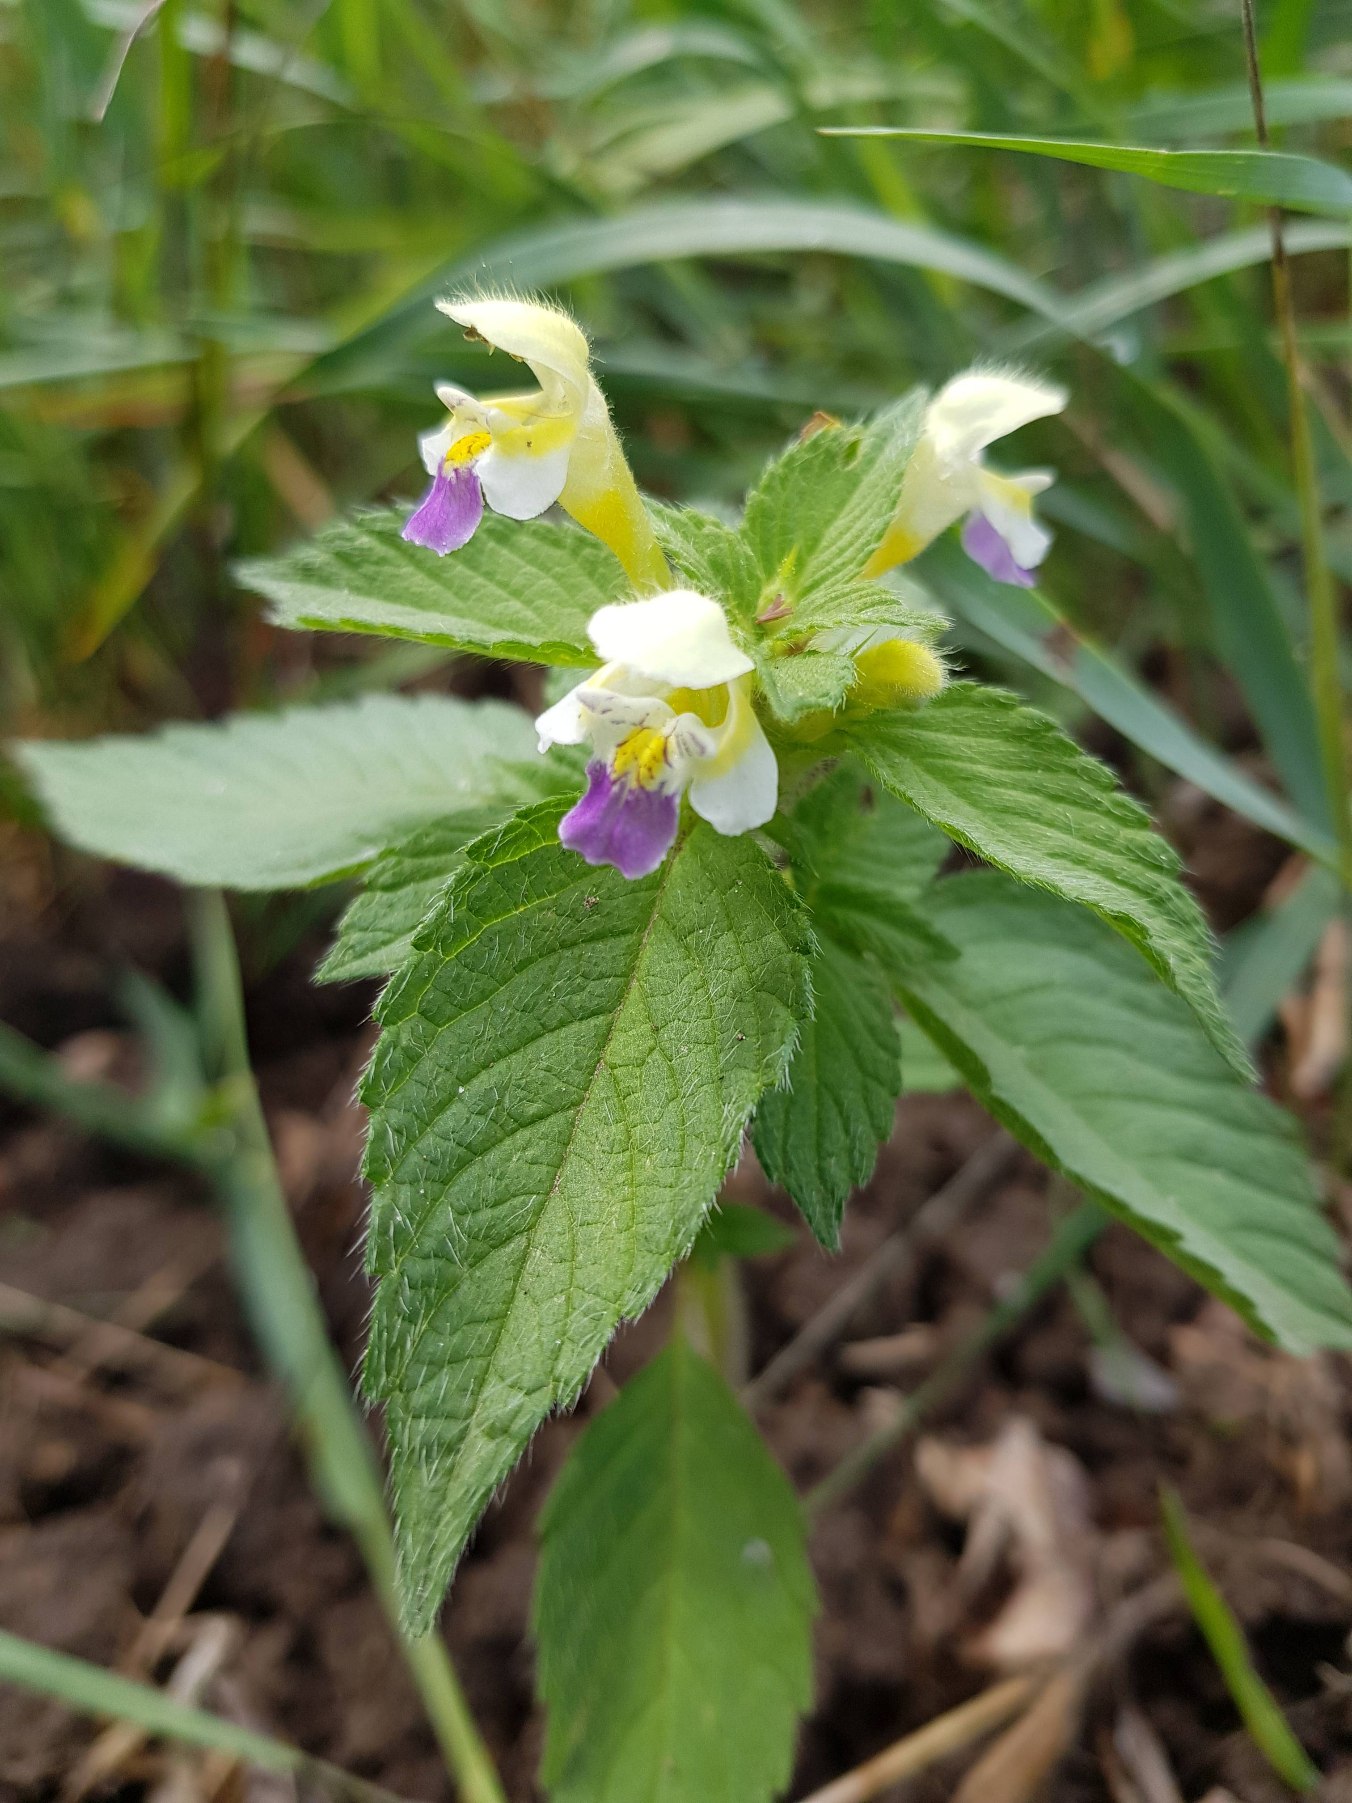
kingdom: Plantae
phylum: Tracheophyta
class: Magnoliopsida
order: Lamiales
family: Lamiaceae
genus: Galeopsis
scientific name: Galeopsis speciosa
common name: Hamp-hanekro
